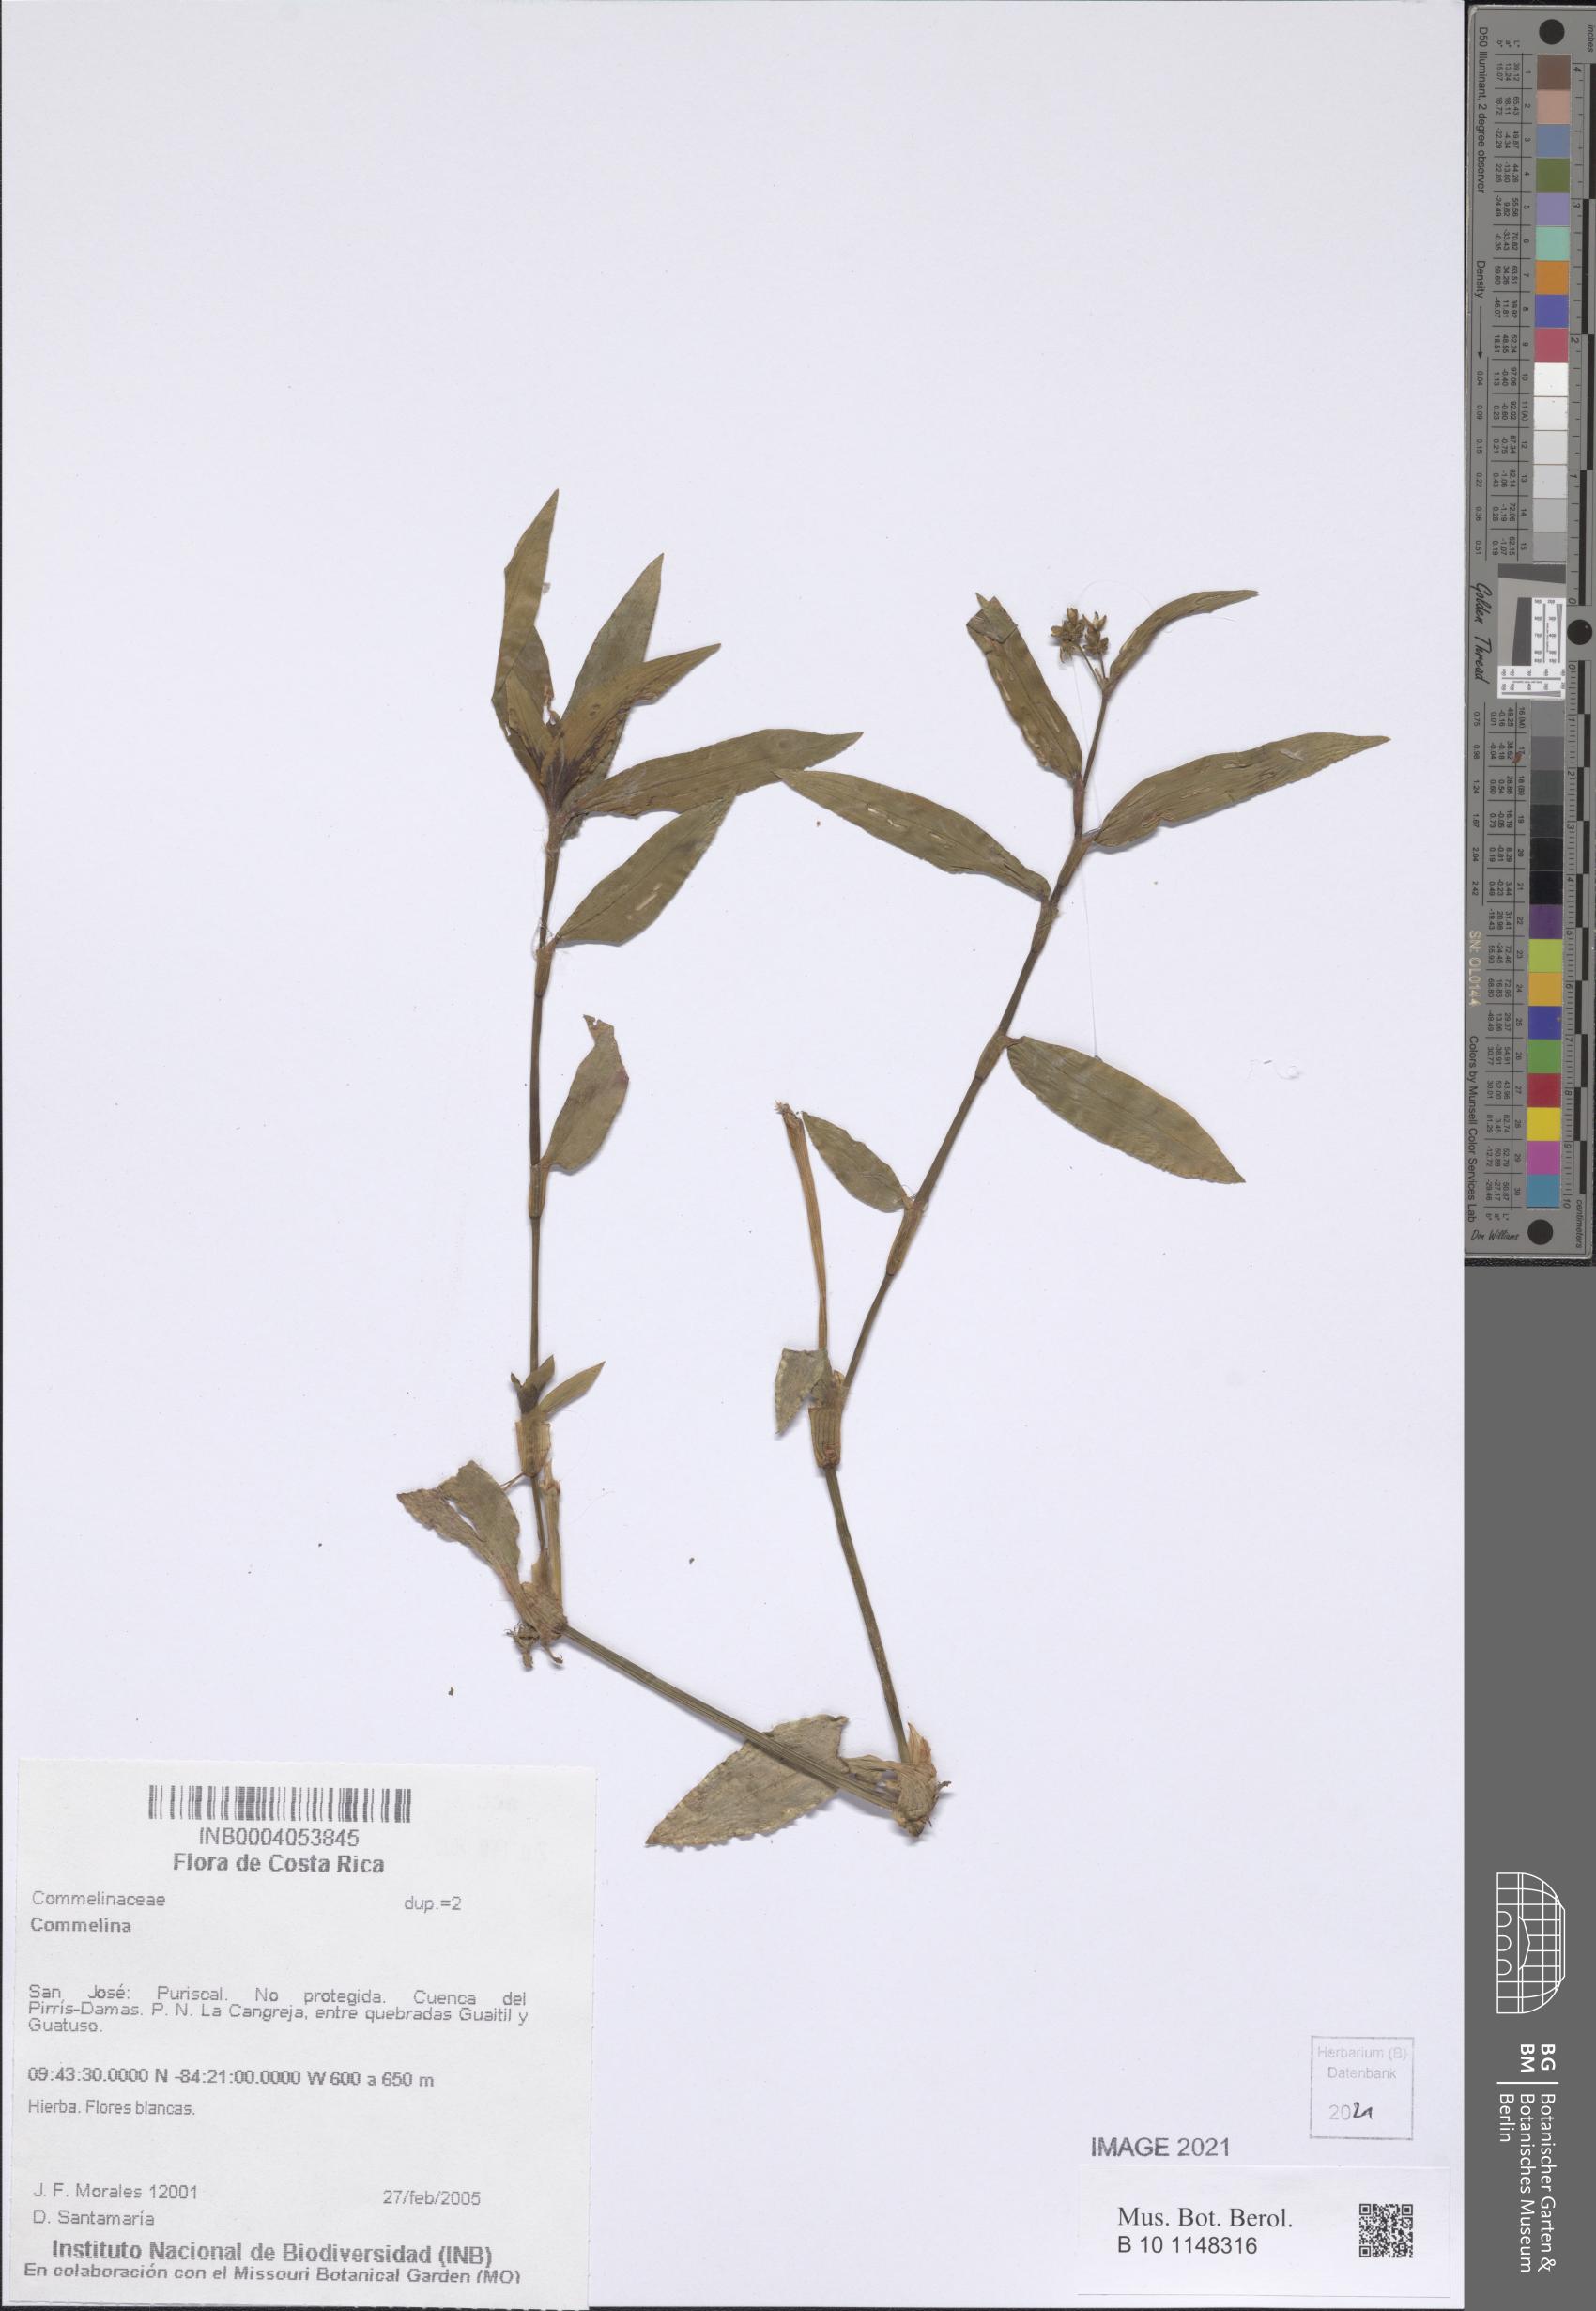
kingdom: Plantae
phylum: Tracheophyta
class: Liliopsida
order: Commelinales
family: Commelinaceae
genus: Commelina
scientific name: Commelina
